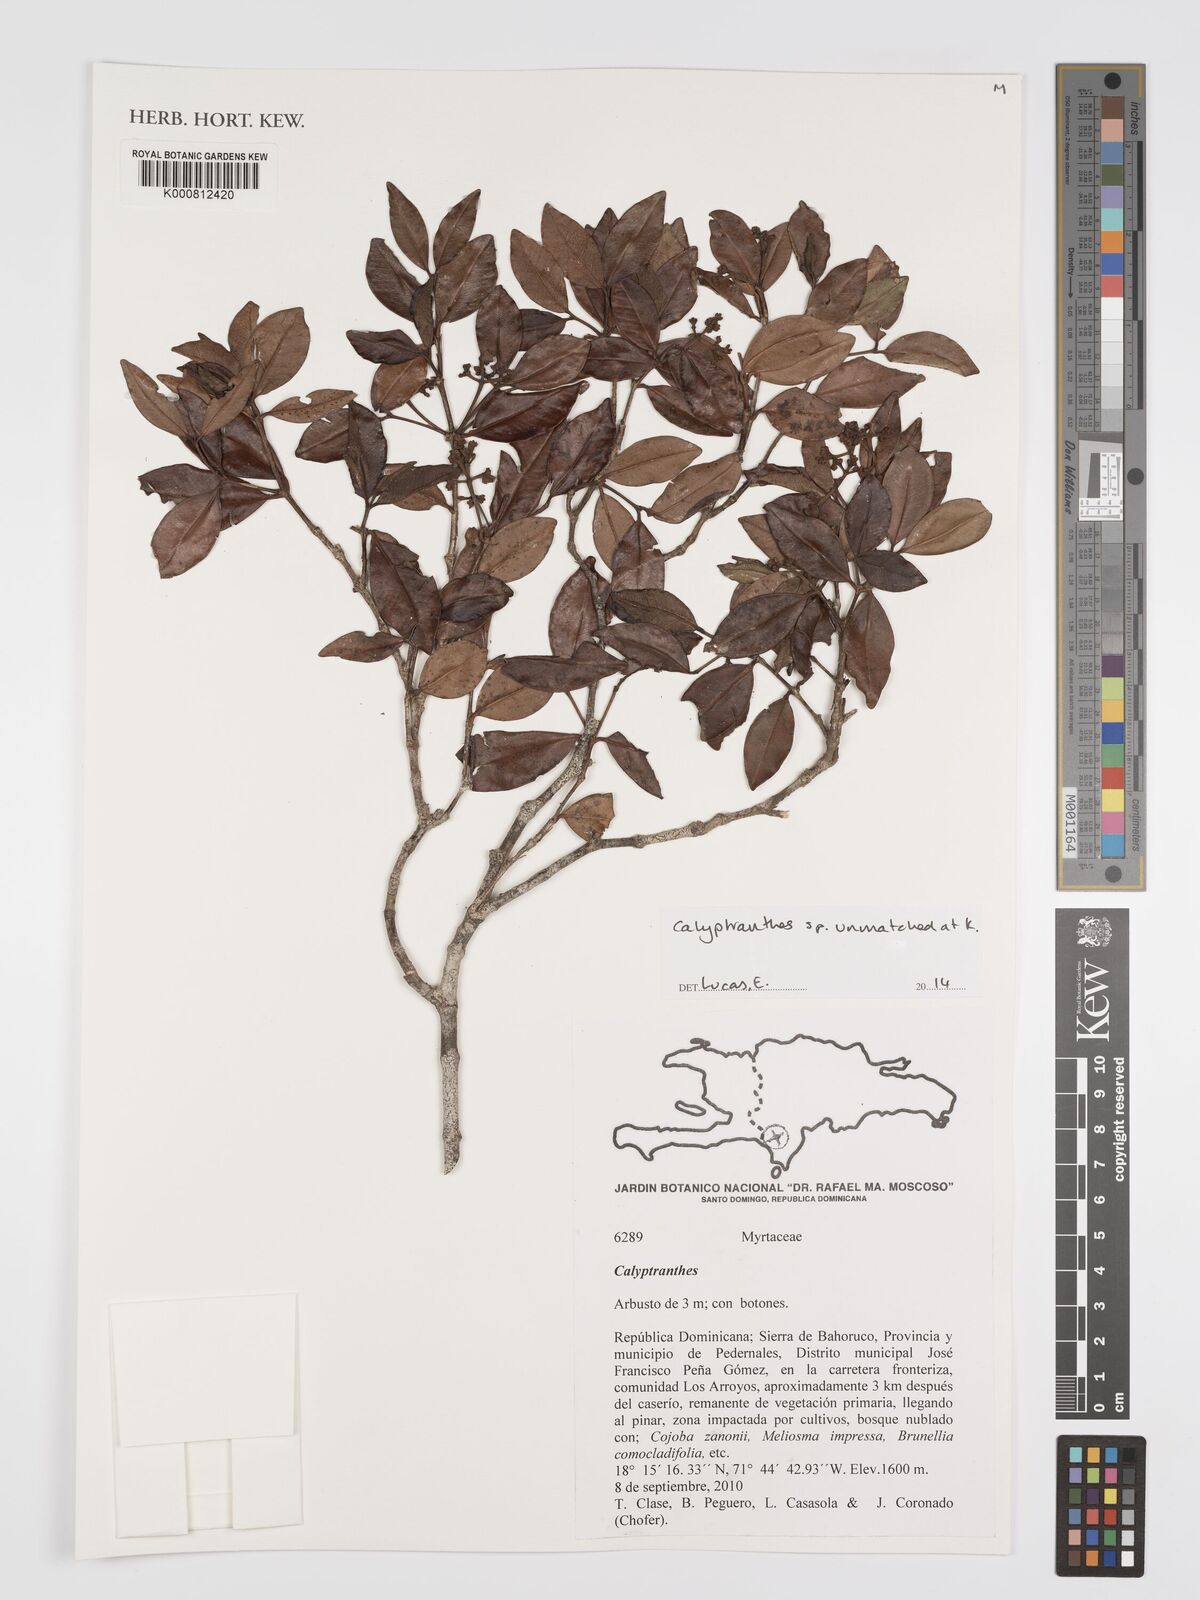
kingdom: Plantae
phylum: Tracheophyta
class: Magnoliopsida
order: Myrtales
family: Myrtaceae
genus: Calyptranthes
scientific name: Calyptranthes
